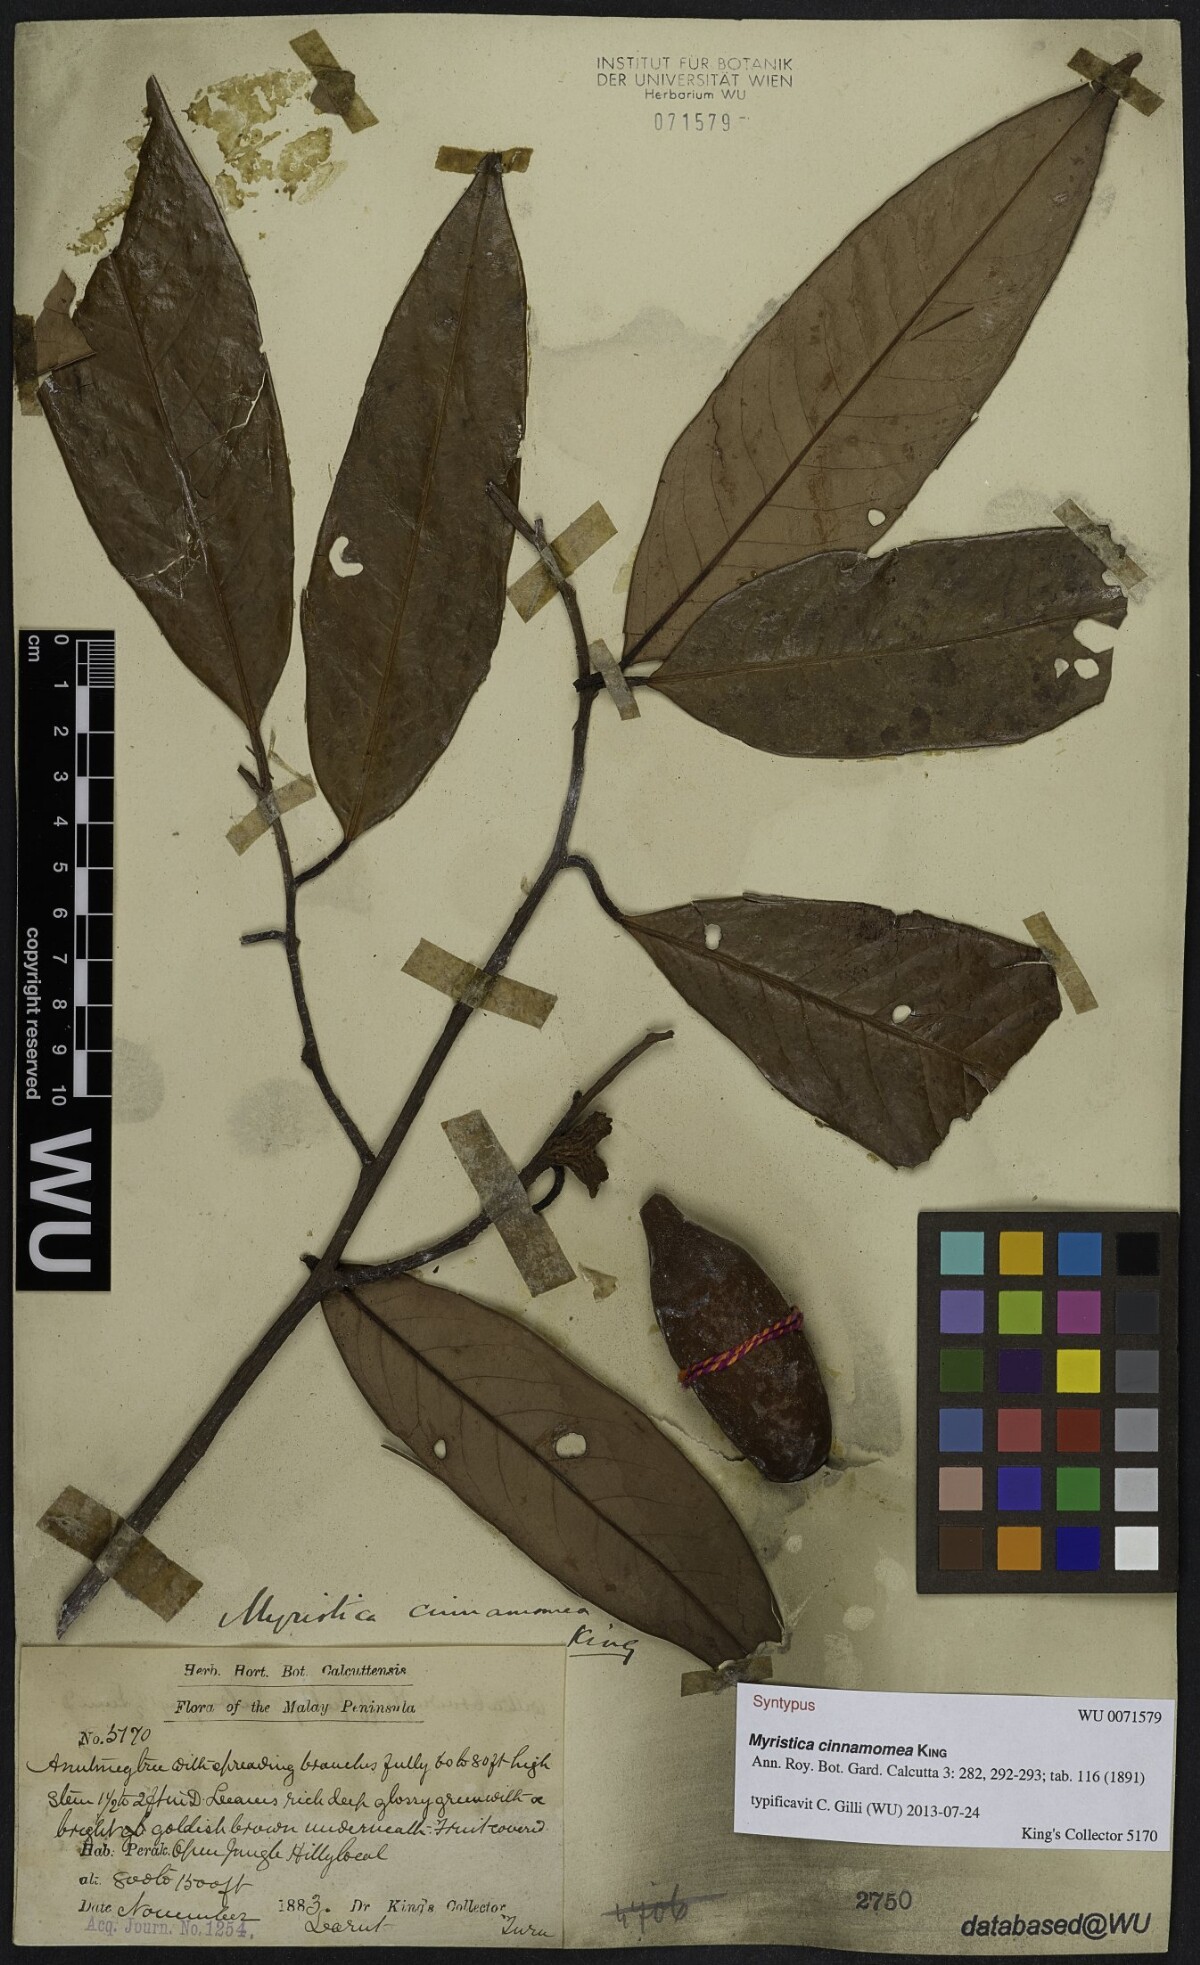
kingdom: Plantae
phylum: Tracheophyta
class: Magnoliopsida
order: Magnoliales
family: Myristicaceae
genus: Myristica
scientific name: Myristica cinnamomea
